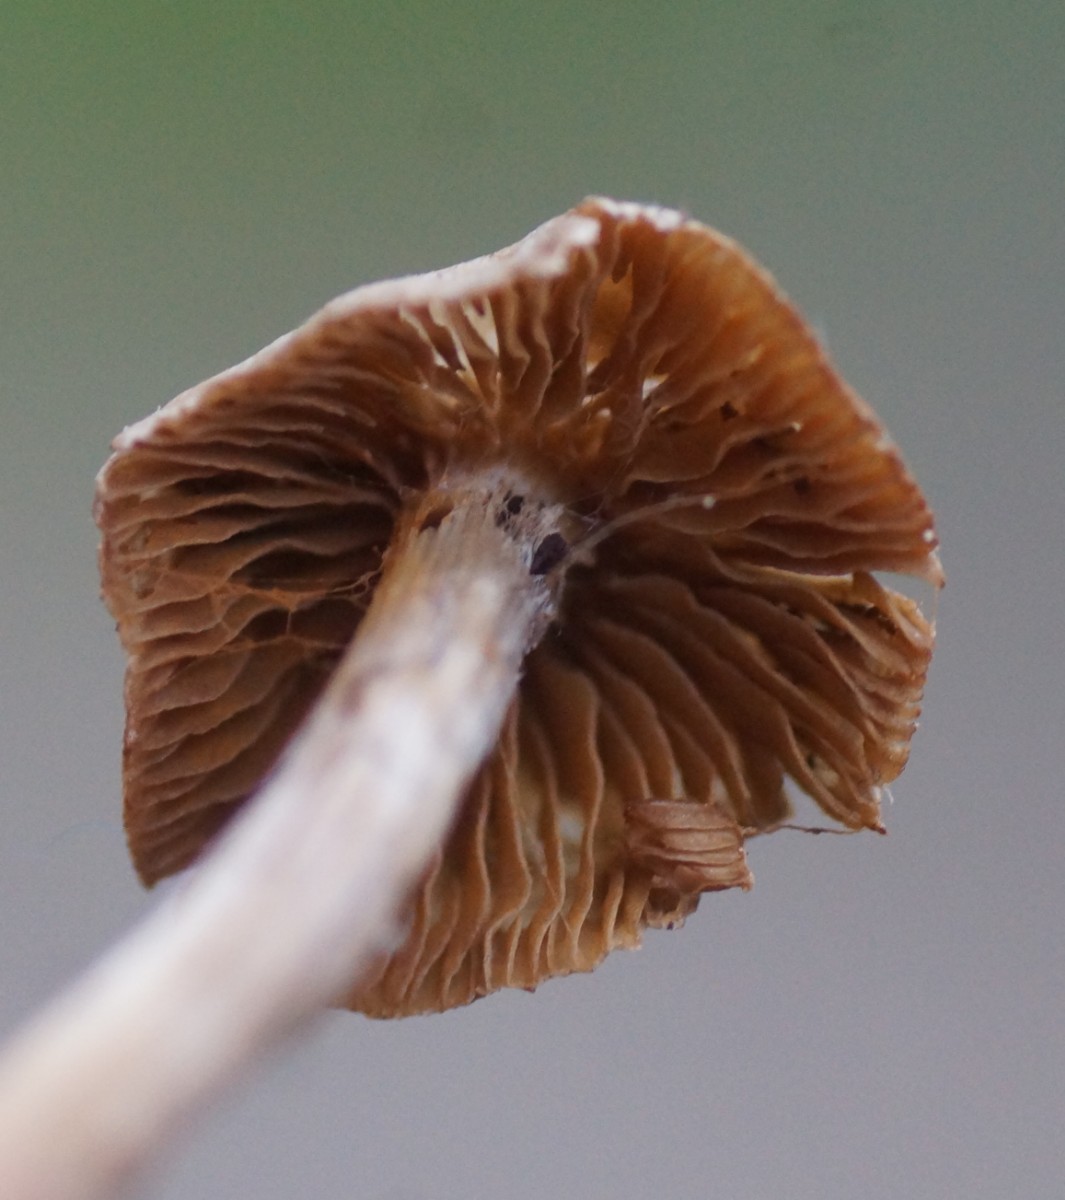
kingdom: Fungi
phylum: Basidiomycota
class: Agaricomycetes
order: Agaricales
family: Cortinariaceae
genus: Cortinarius
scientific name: Cortinarius
